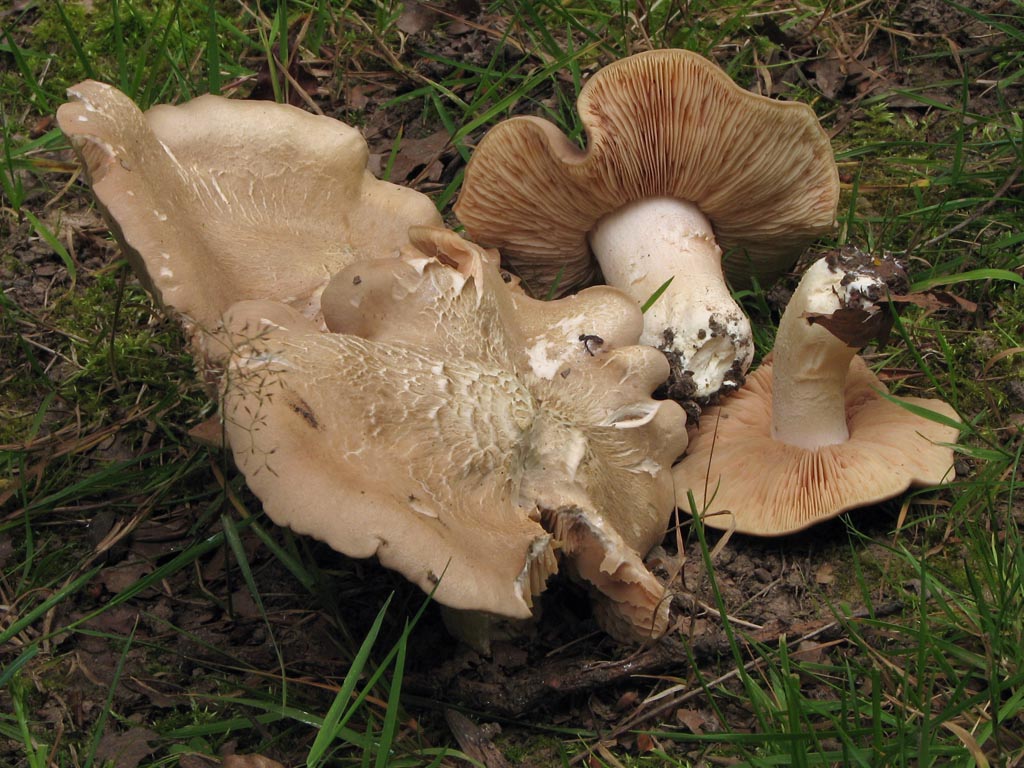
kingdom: Fungi
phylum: Basidiomycota
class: Agaricomycetes
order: Agaricales
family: Entolomataceae
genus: Entoloma
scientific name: Entoloma sinuatum
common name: giftig rødblad
